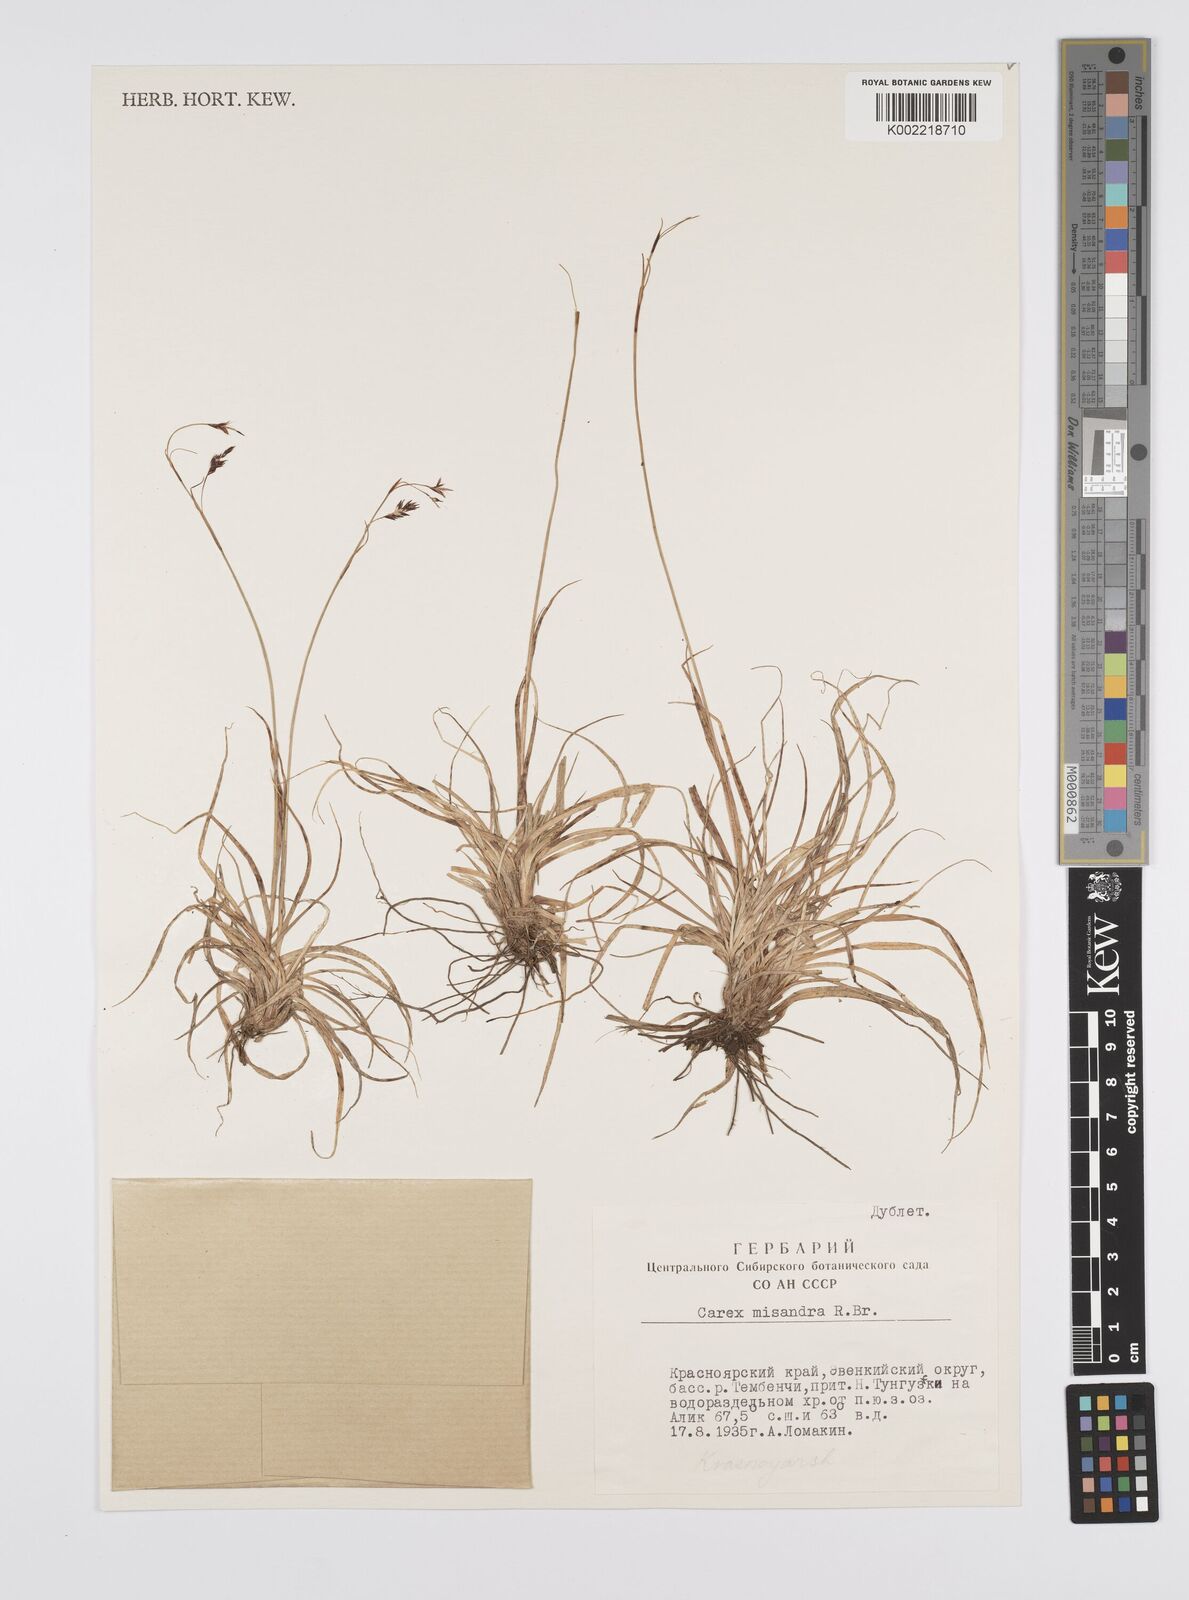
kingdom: Plantae
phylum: Tracheophyta
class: Liliopsida
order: Poales
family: Cyperaceae
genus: Carex
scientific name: Carex fuliginosa
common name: Few-flowered sedge
